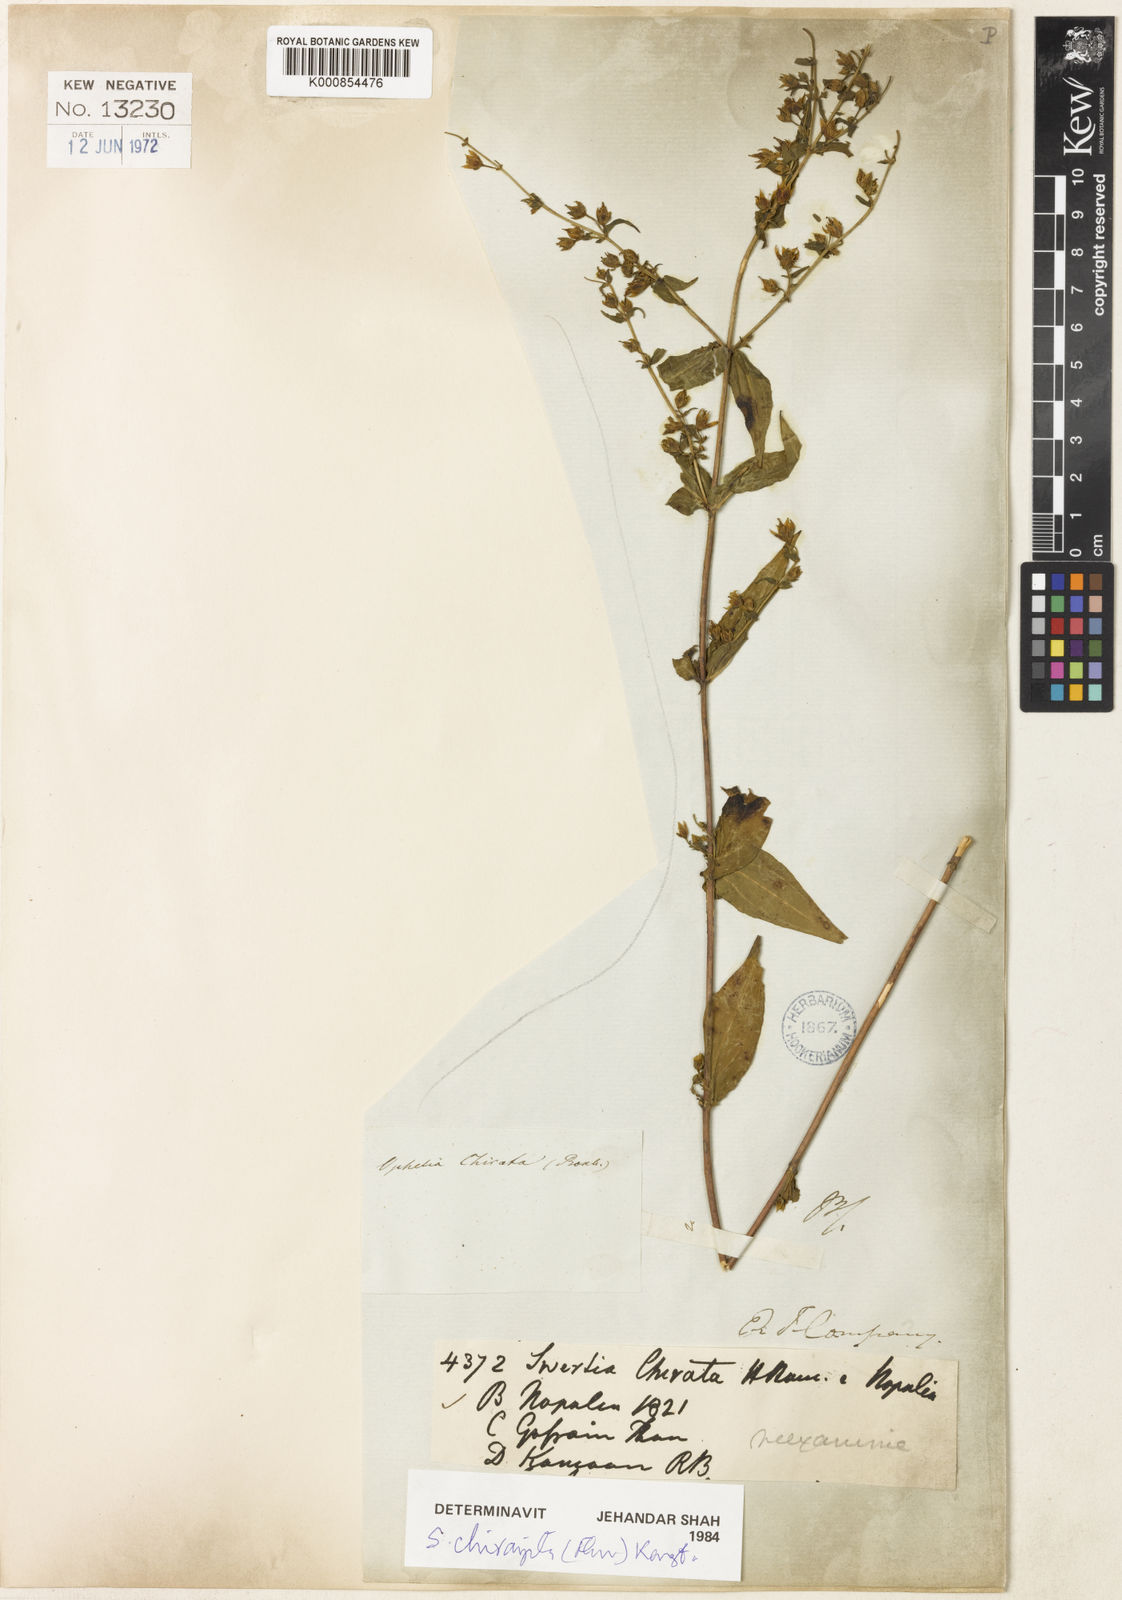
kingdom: Plantae
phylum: Tracheophyta
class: Magnoliopsida
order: Gentianales
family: Gentianaceae
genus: Swertia
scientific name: Swertia chirayita
